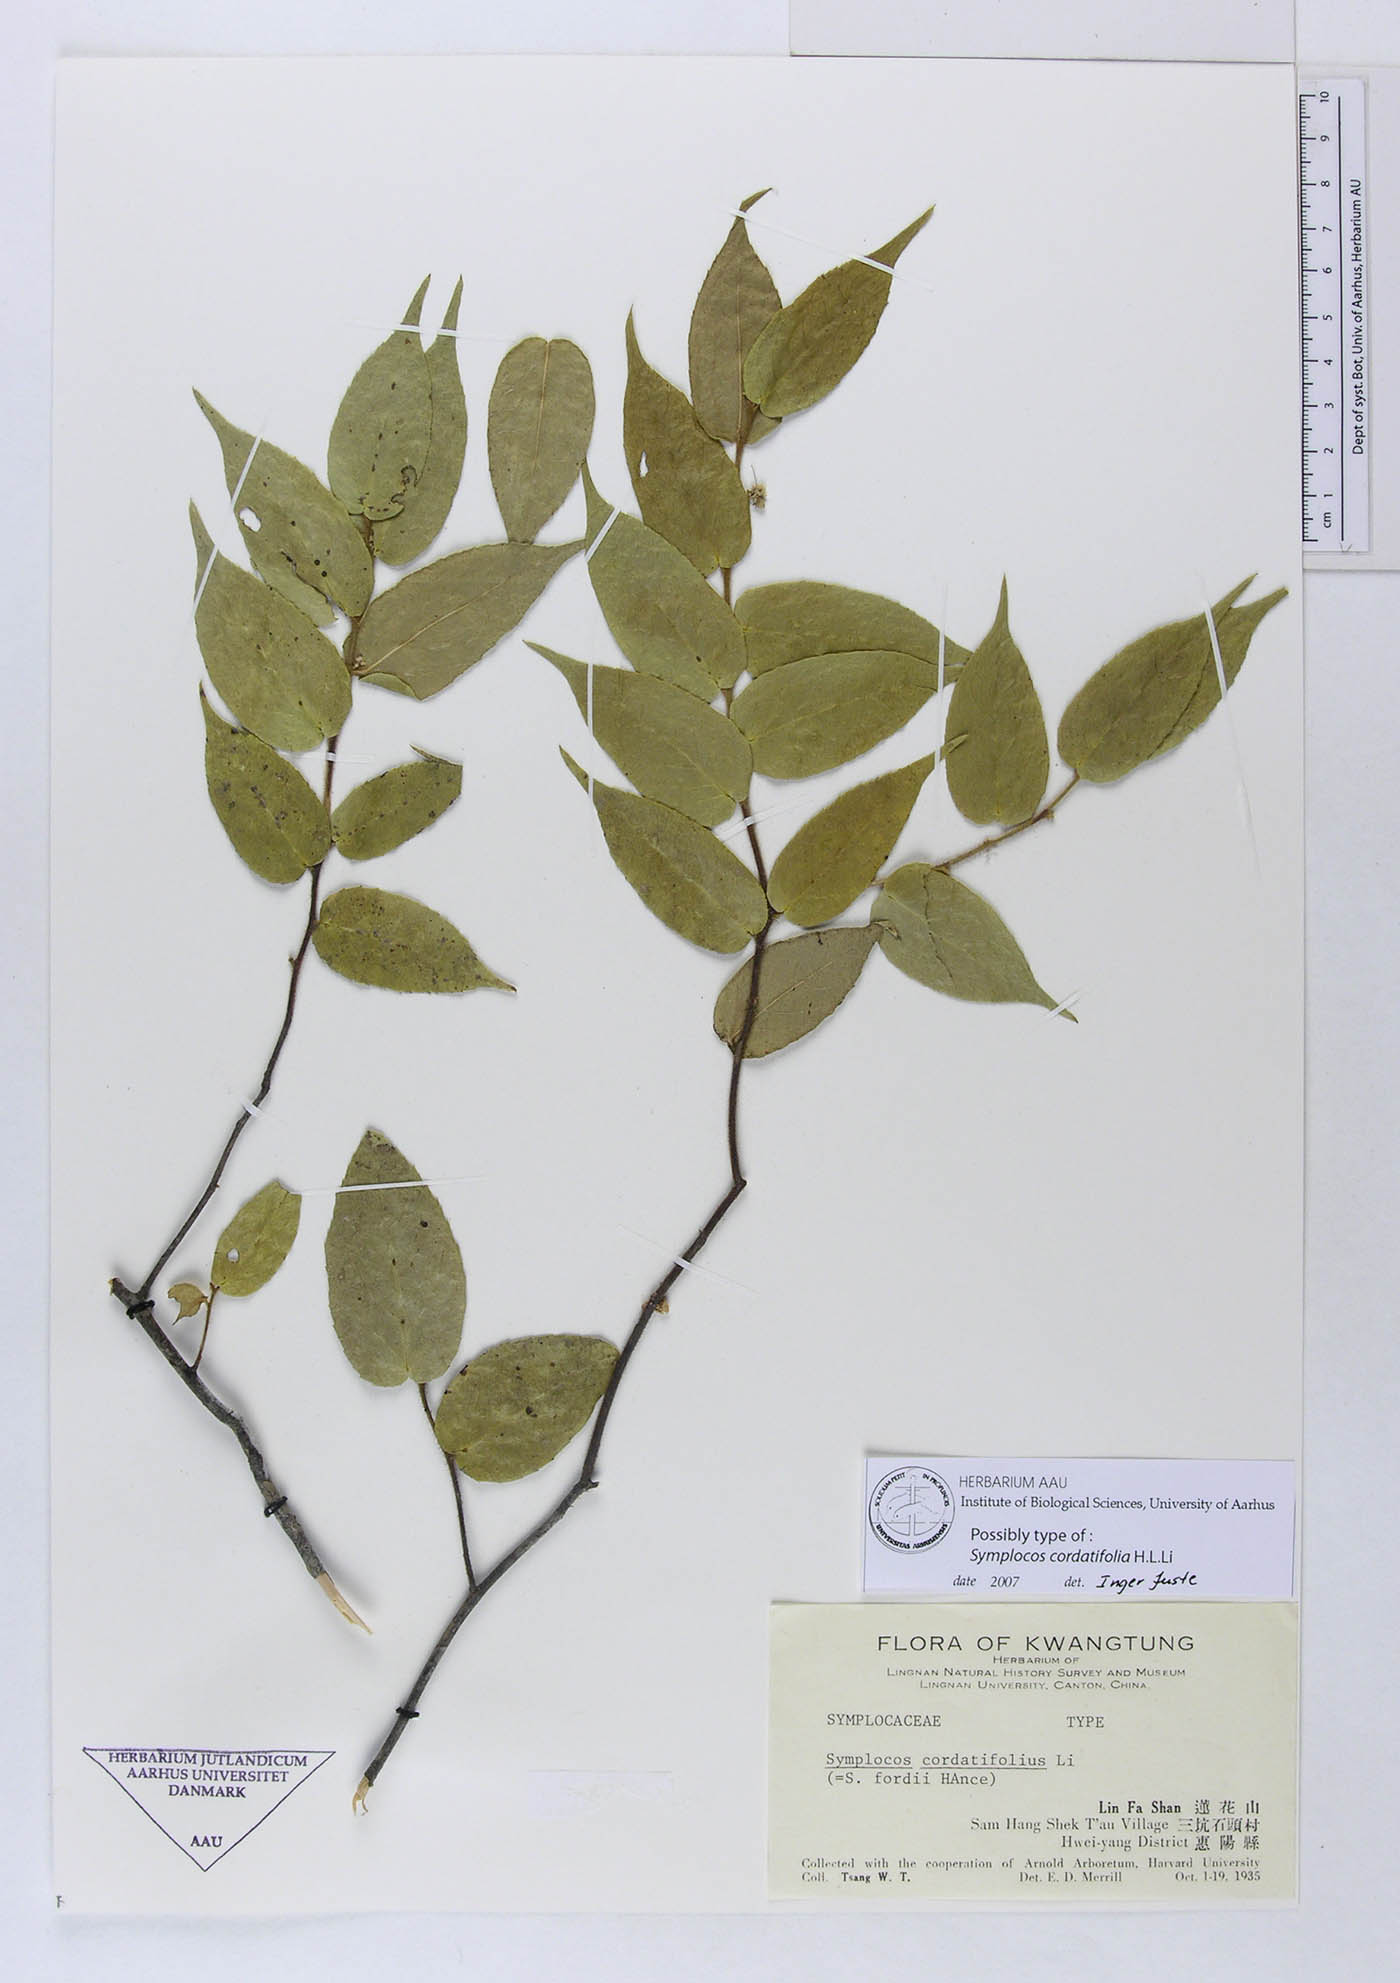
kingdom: Plantae
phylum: Tracheophyta
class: Magnoliopsida
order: Ericales
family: Symplocaceae
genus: Symplocos
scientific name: Symplocos fordii
